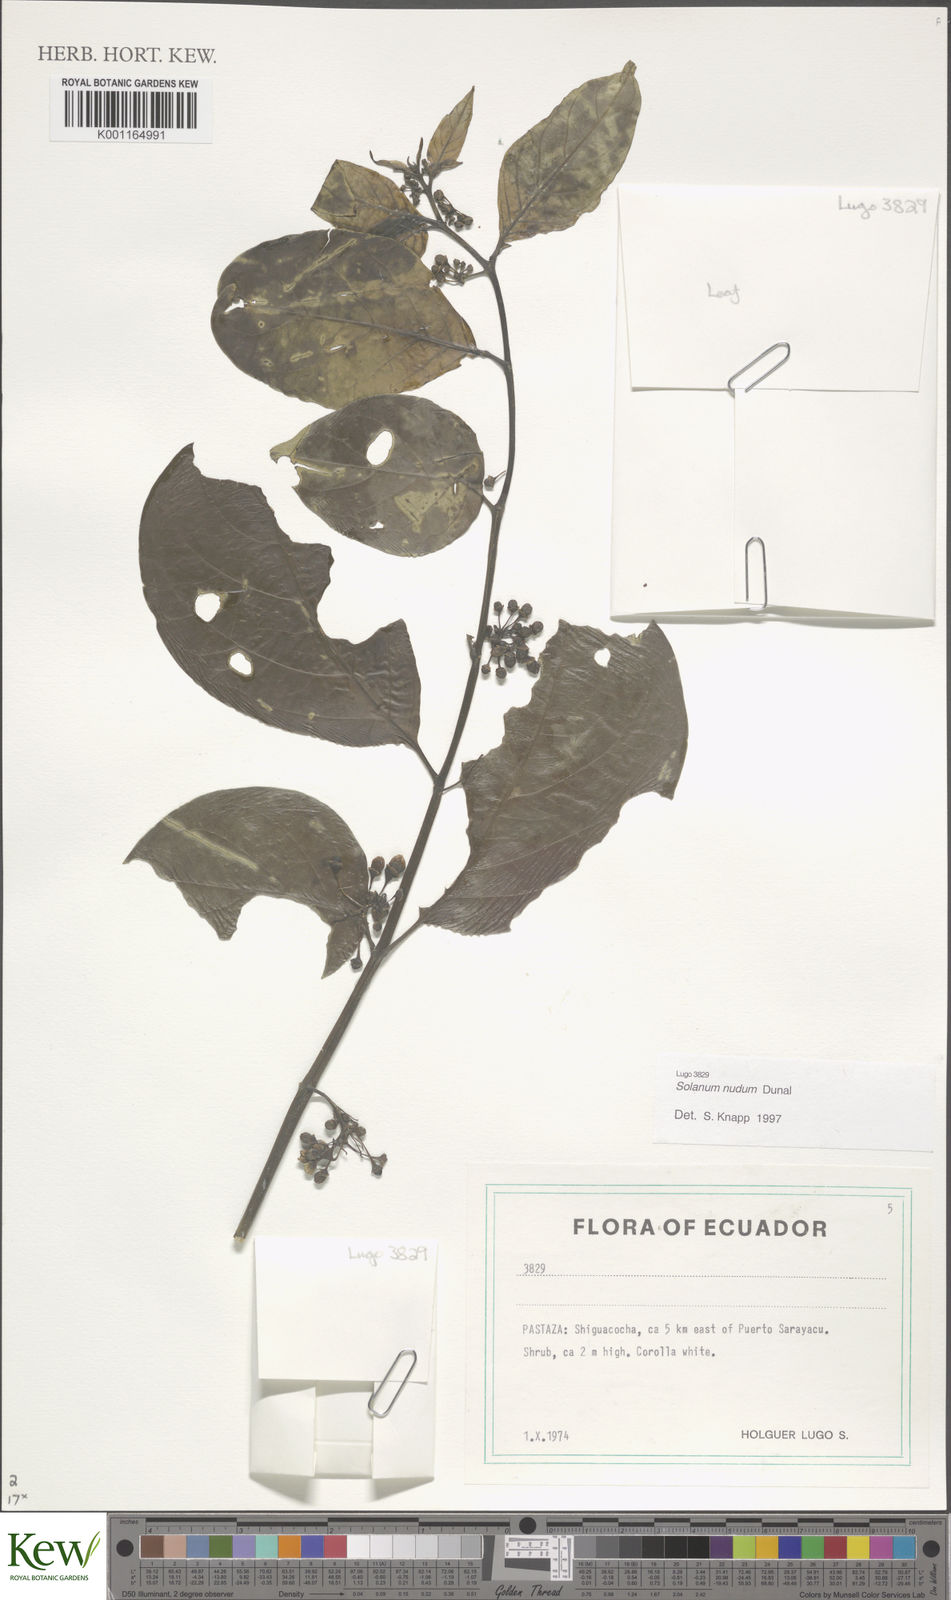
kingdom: Plantae
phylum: Tracheophyta
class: Magnoliopsida
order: Solanales
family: Solanaceae
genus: Solanum
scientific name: Solanum nudum
